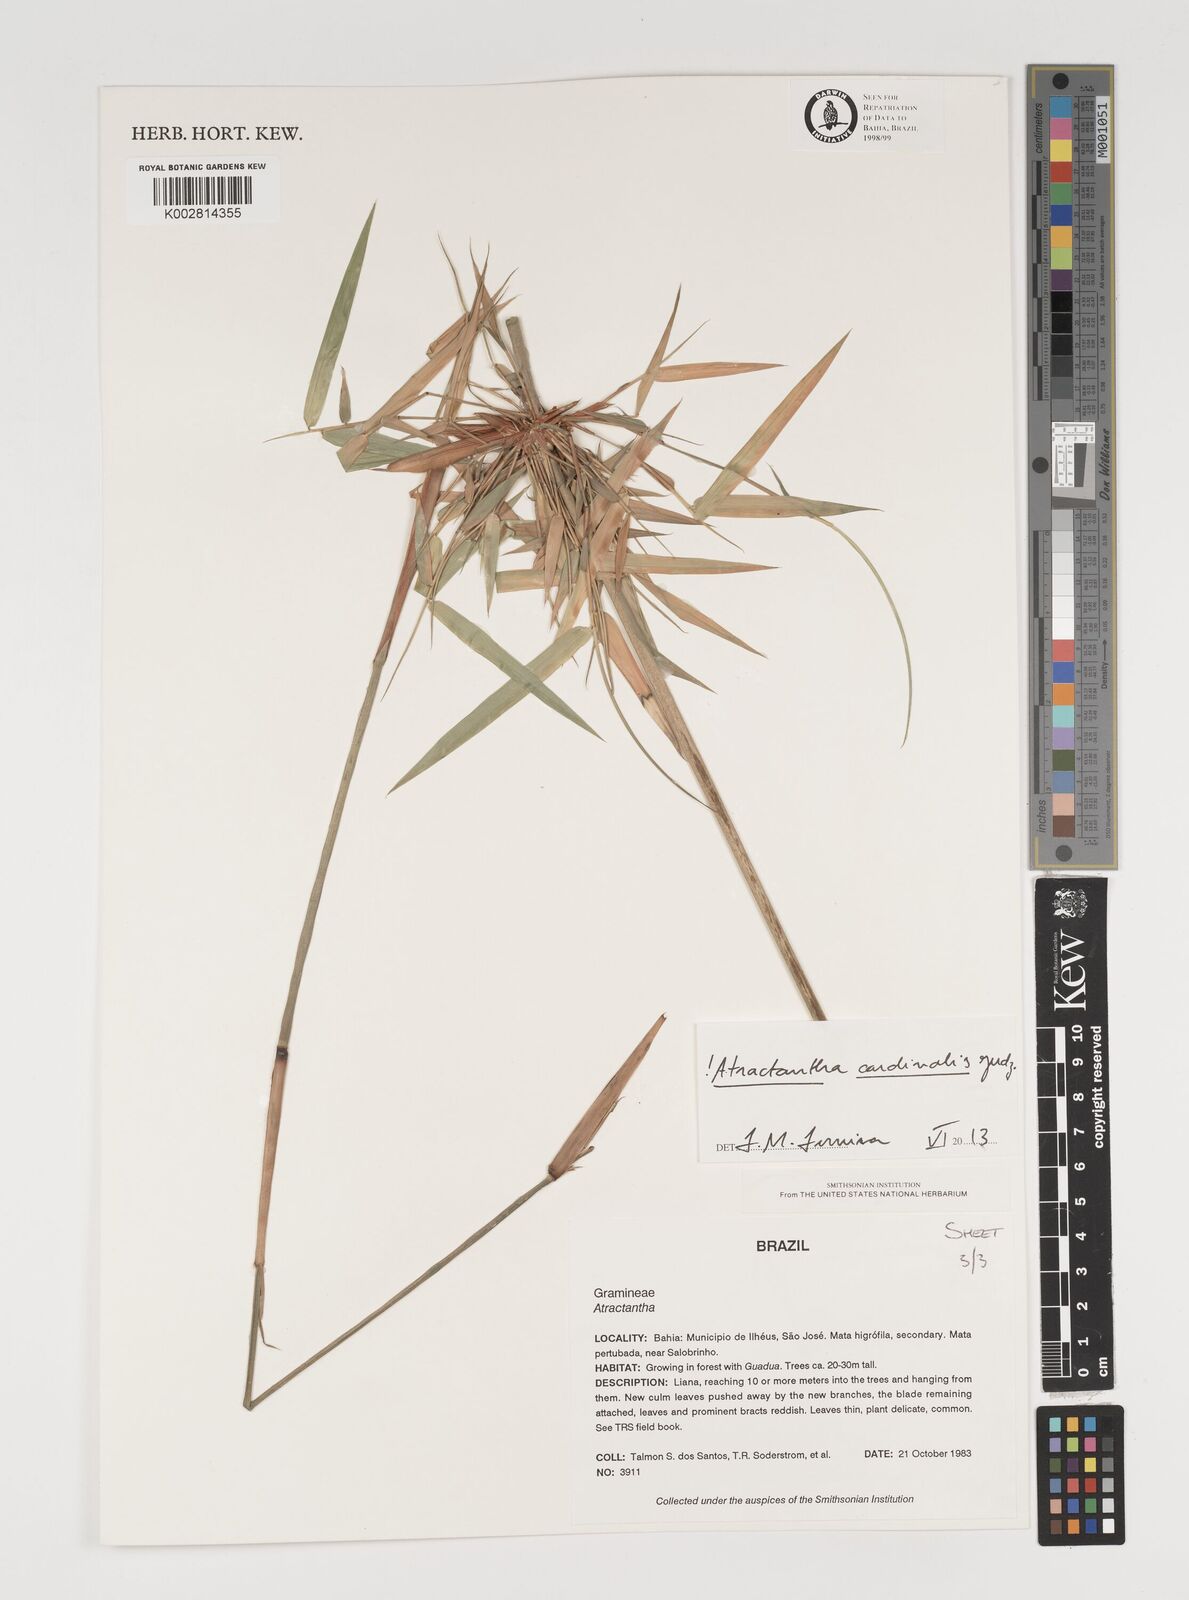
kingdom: Plantae
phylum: Tracheophyta
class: Liliopsida
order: Poales
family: Poaceae
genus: Atractantha
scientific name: Atractantha cardinalis
